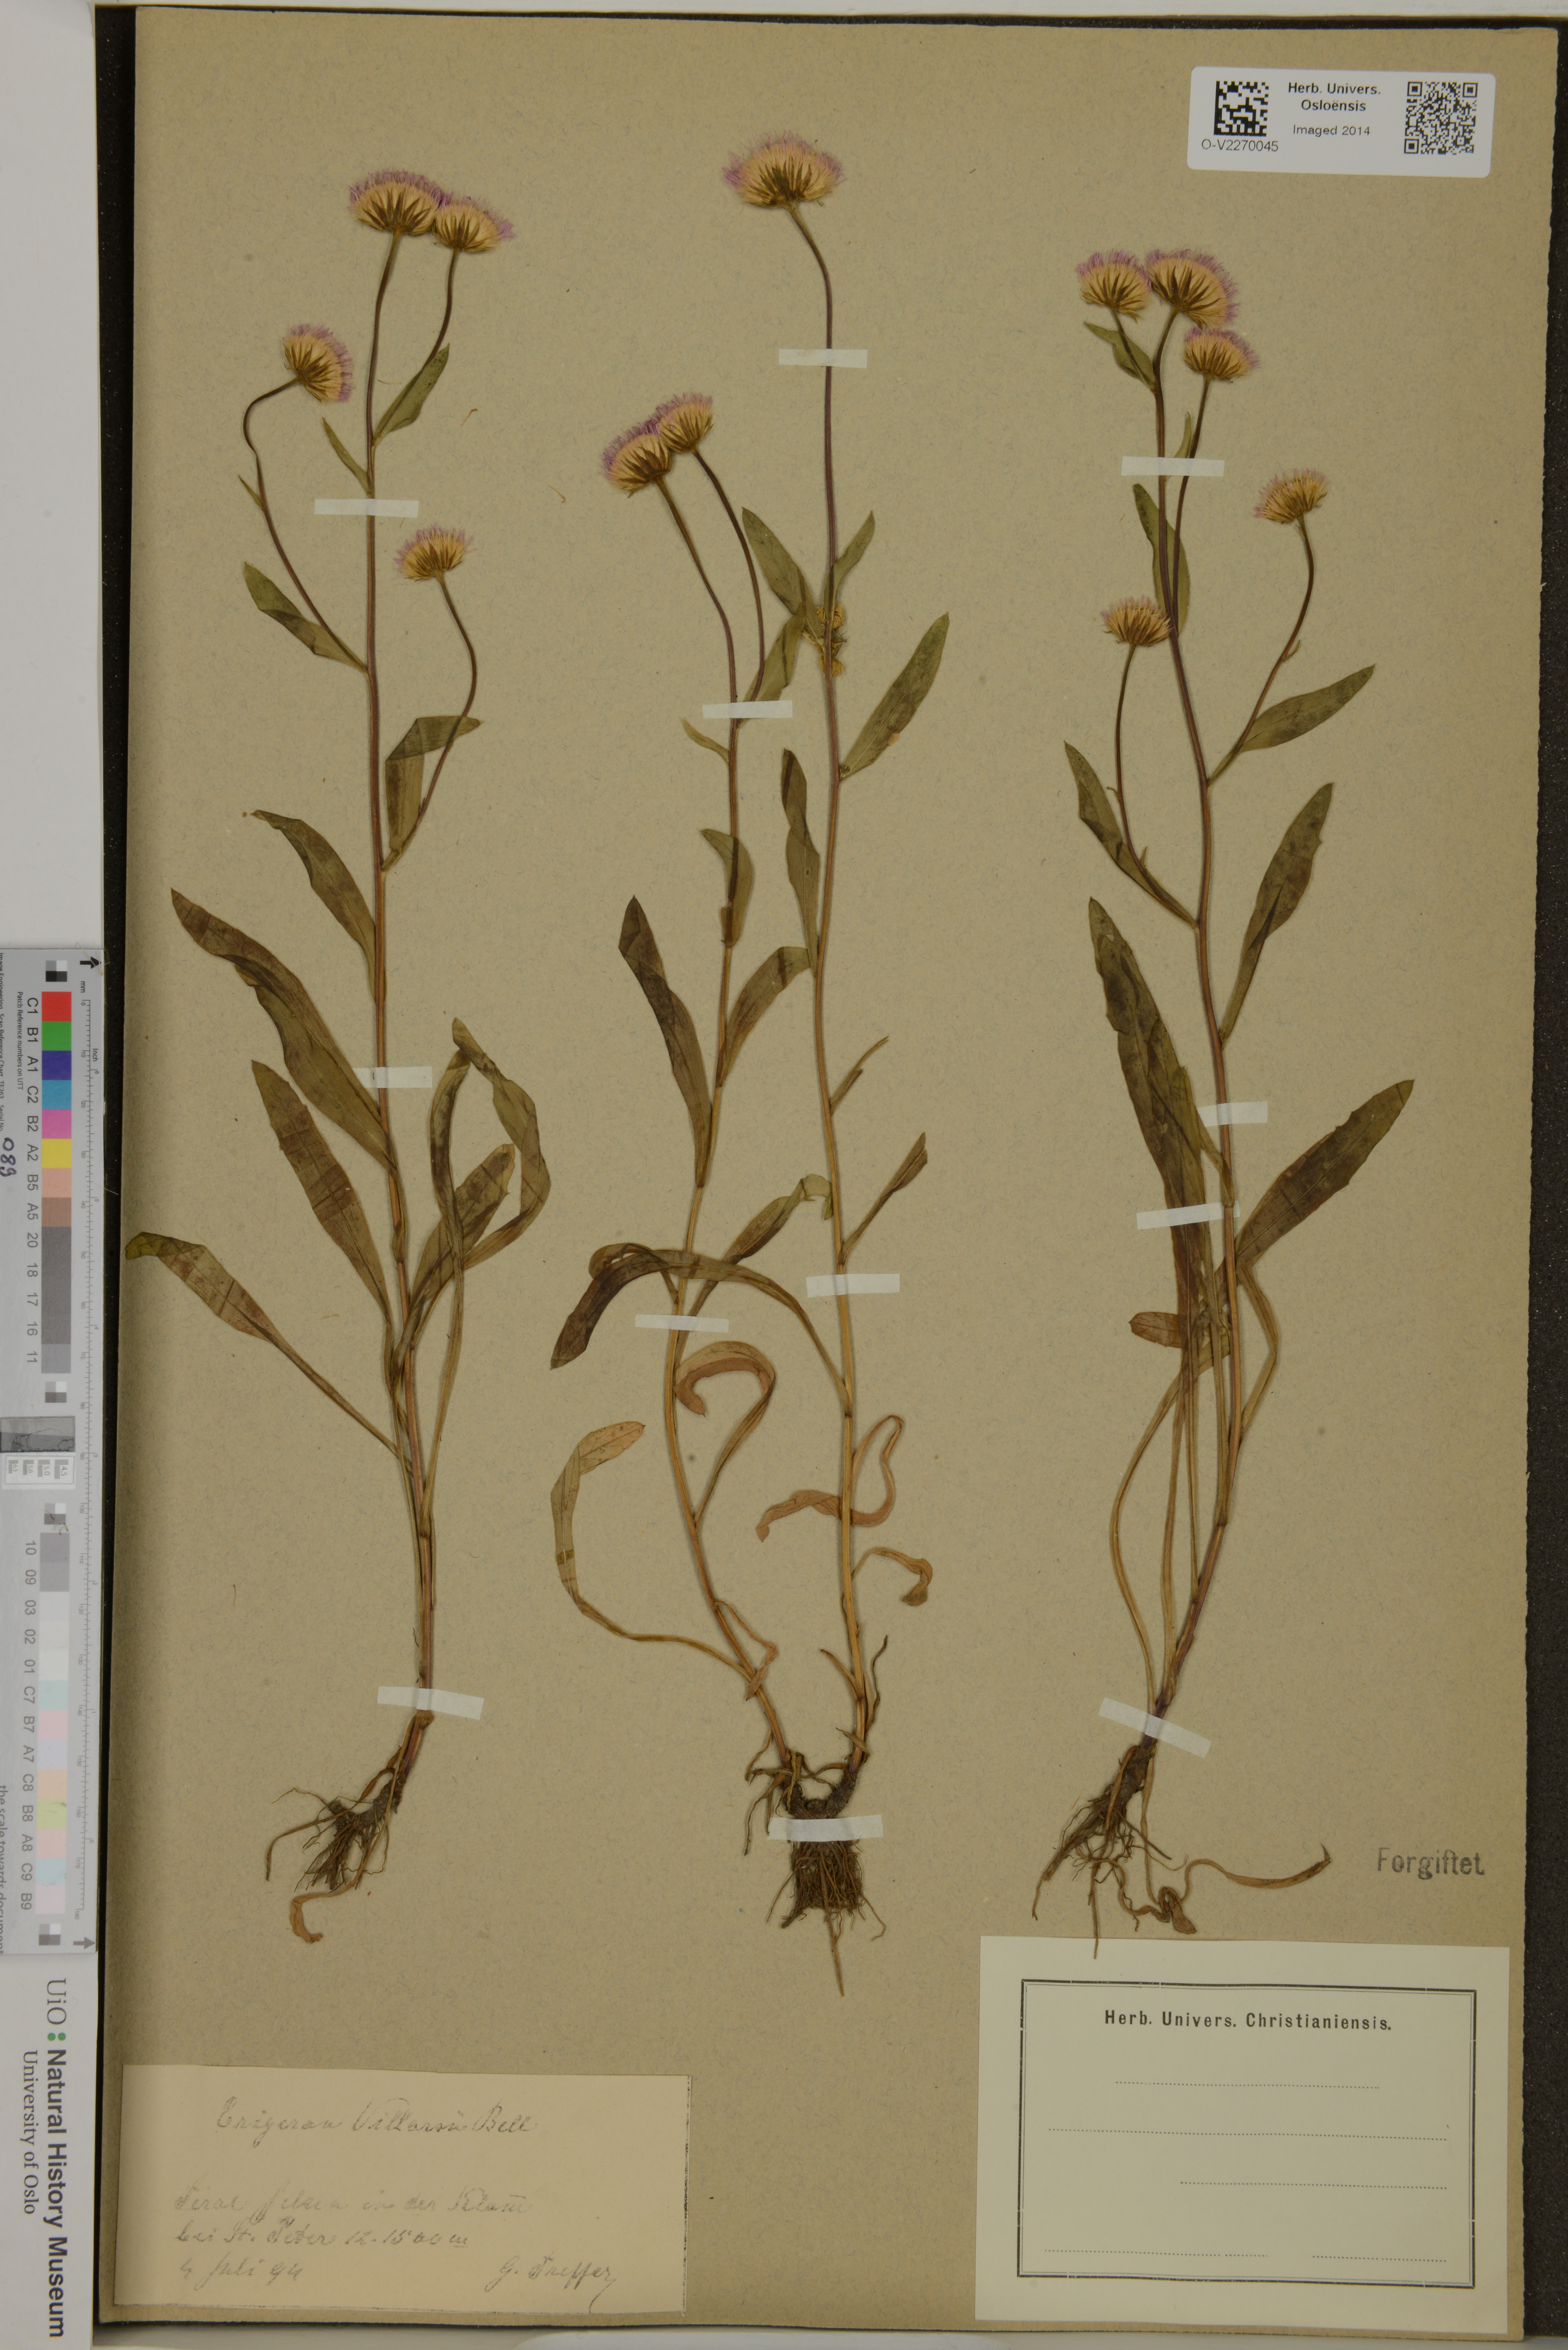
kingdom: Plantae
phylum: Tracheophyta
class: Magnoliopsida
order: Asterales
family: Asteraceae
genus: Erigeron
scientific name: Erigeron
